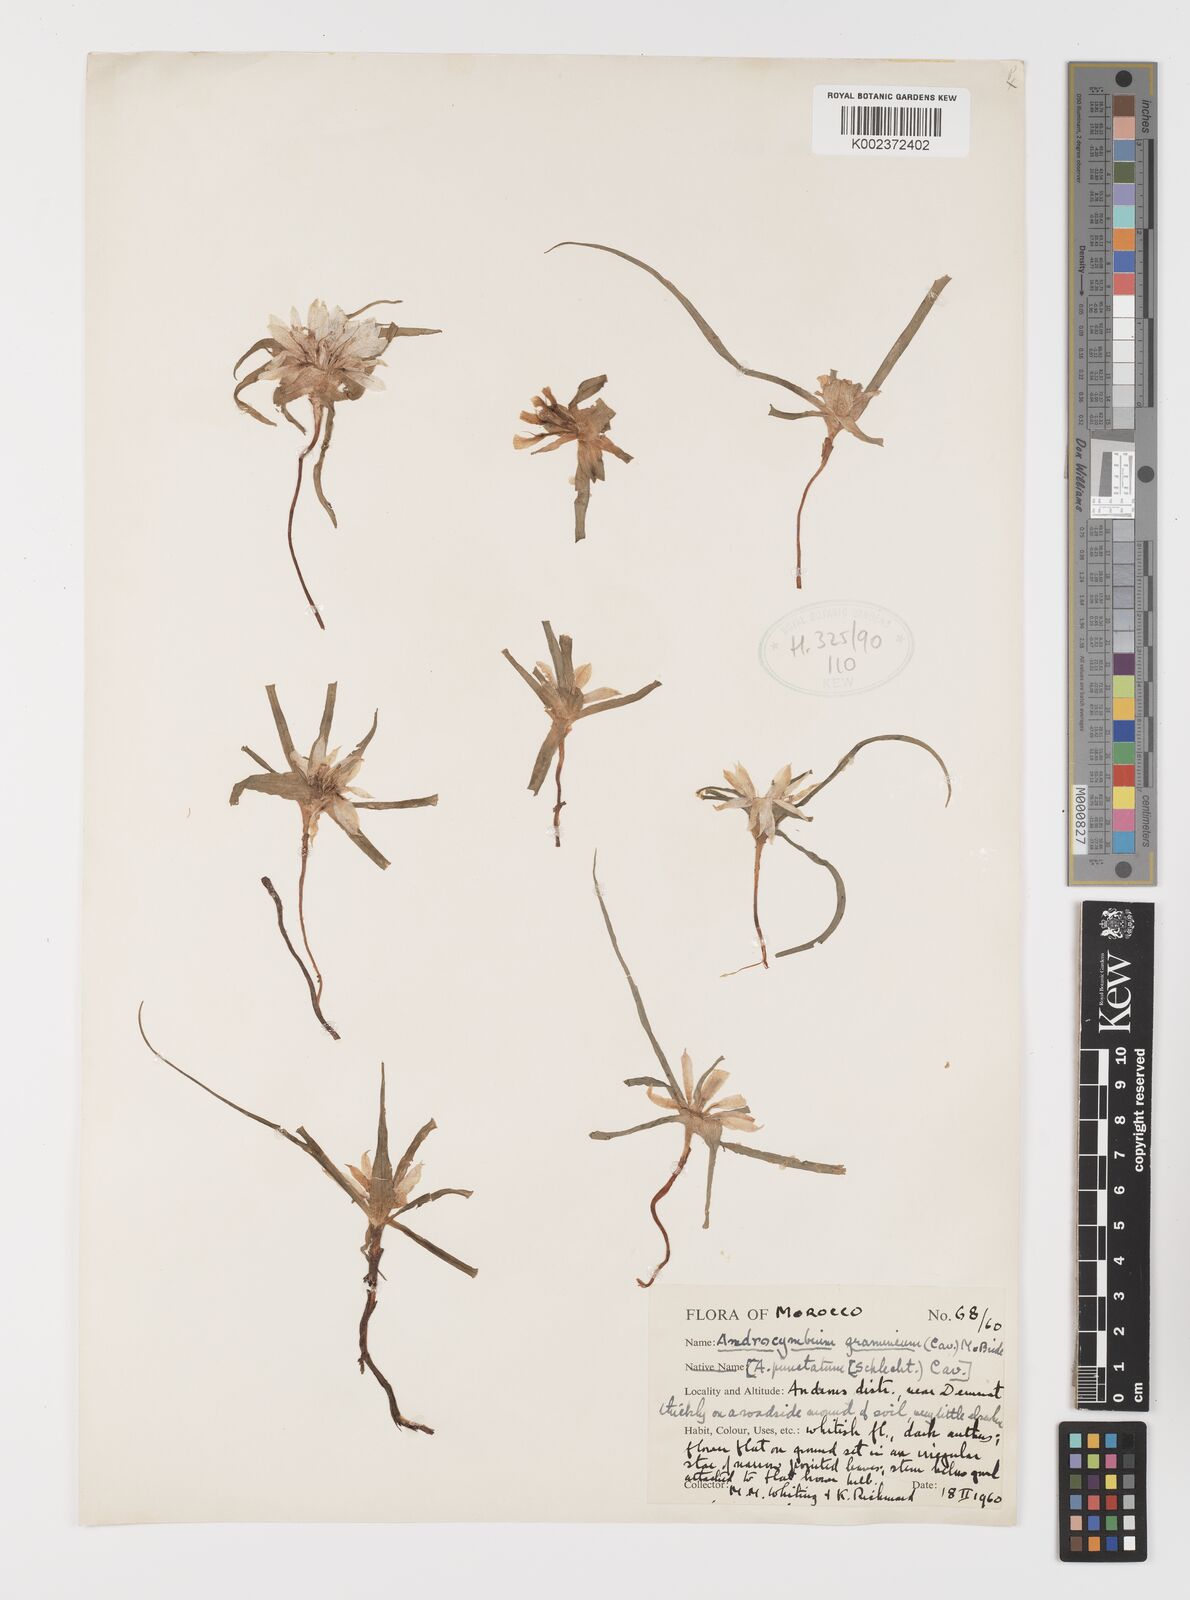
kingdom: Plantae
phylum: Tracheophyta
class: Liliopsida
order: Liliales
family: Colchicaceae
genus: Colchicum
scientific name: Colchicum gramineum
